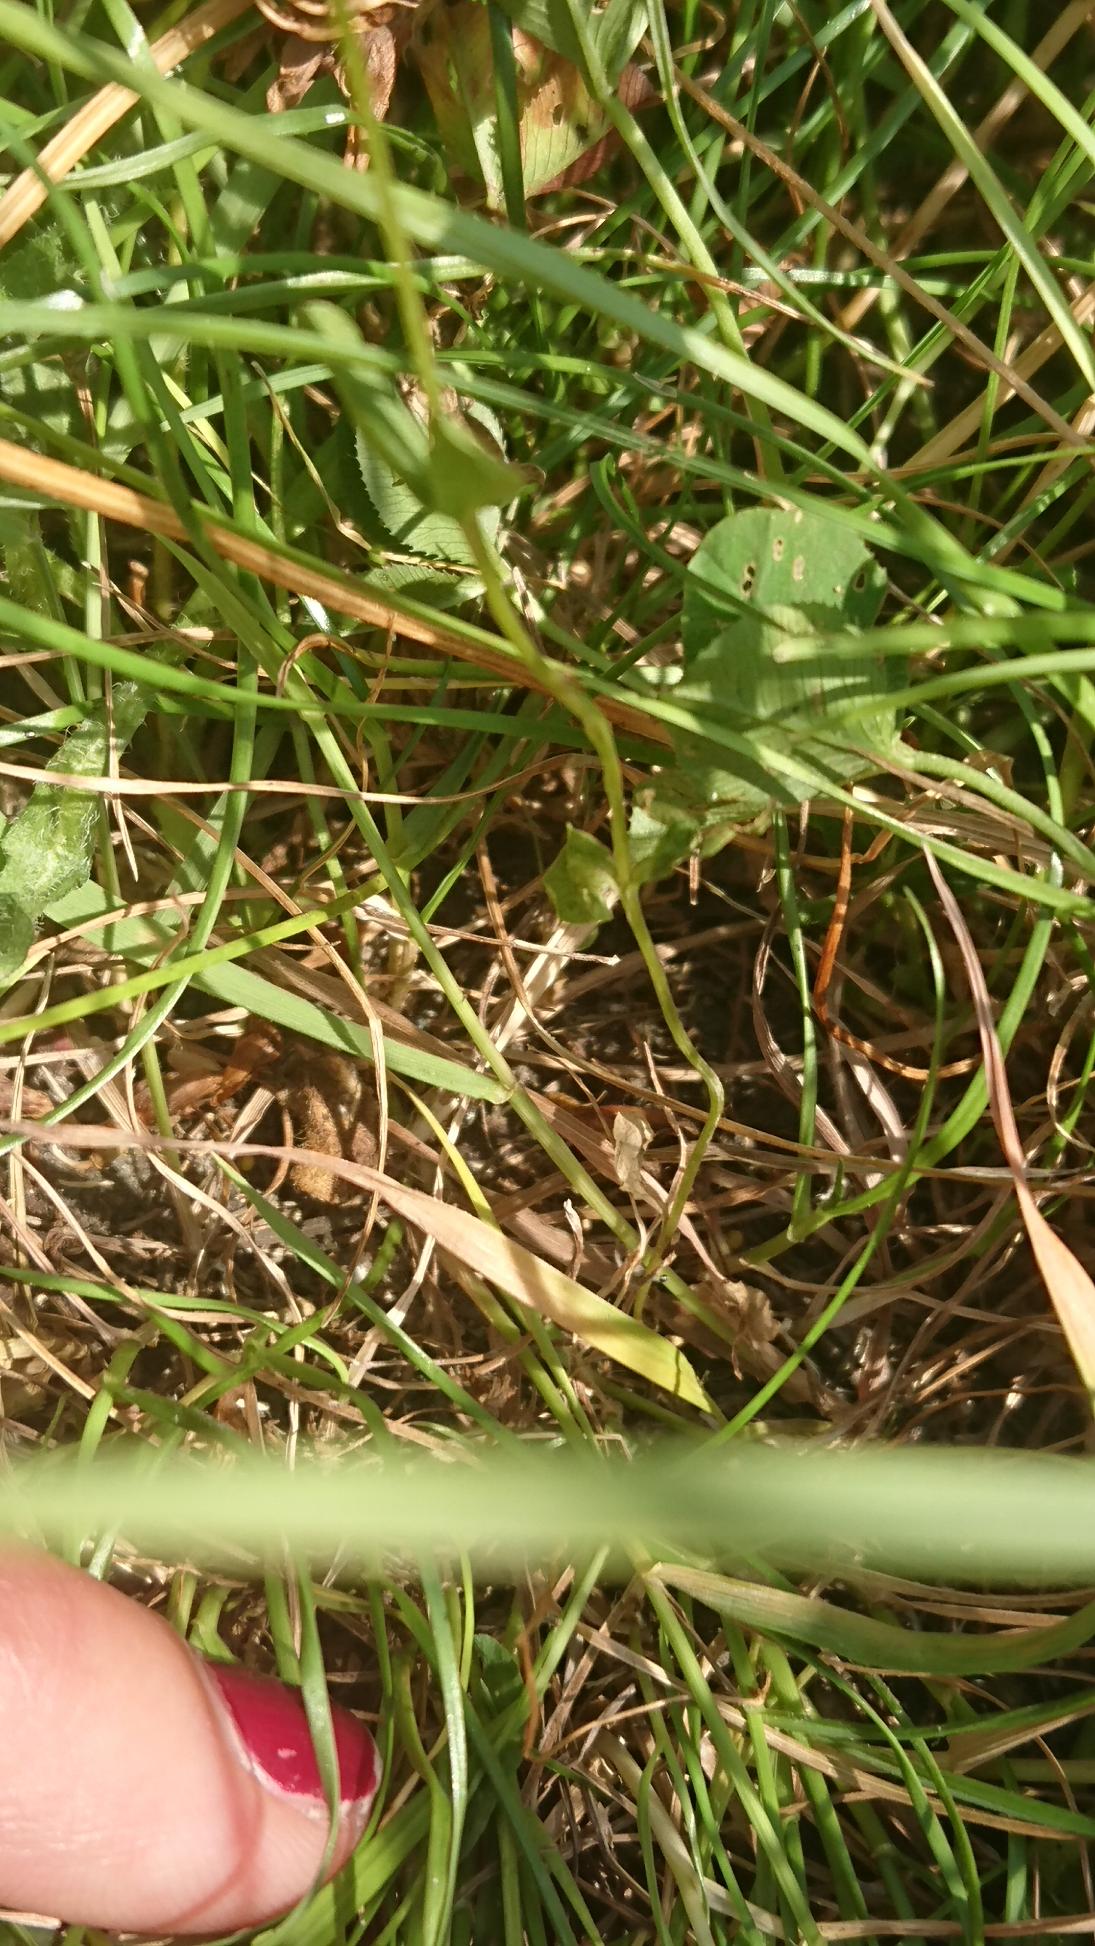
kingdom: Plantae
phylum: Tracheophyta
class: Magnoliopsida
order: Gentianales
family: Gentianaceae
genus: Centaurium
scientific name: Centaurium pulchellum
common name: Liden tusindgylden
